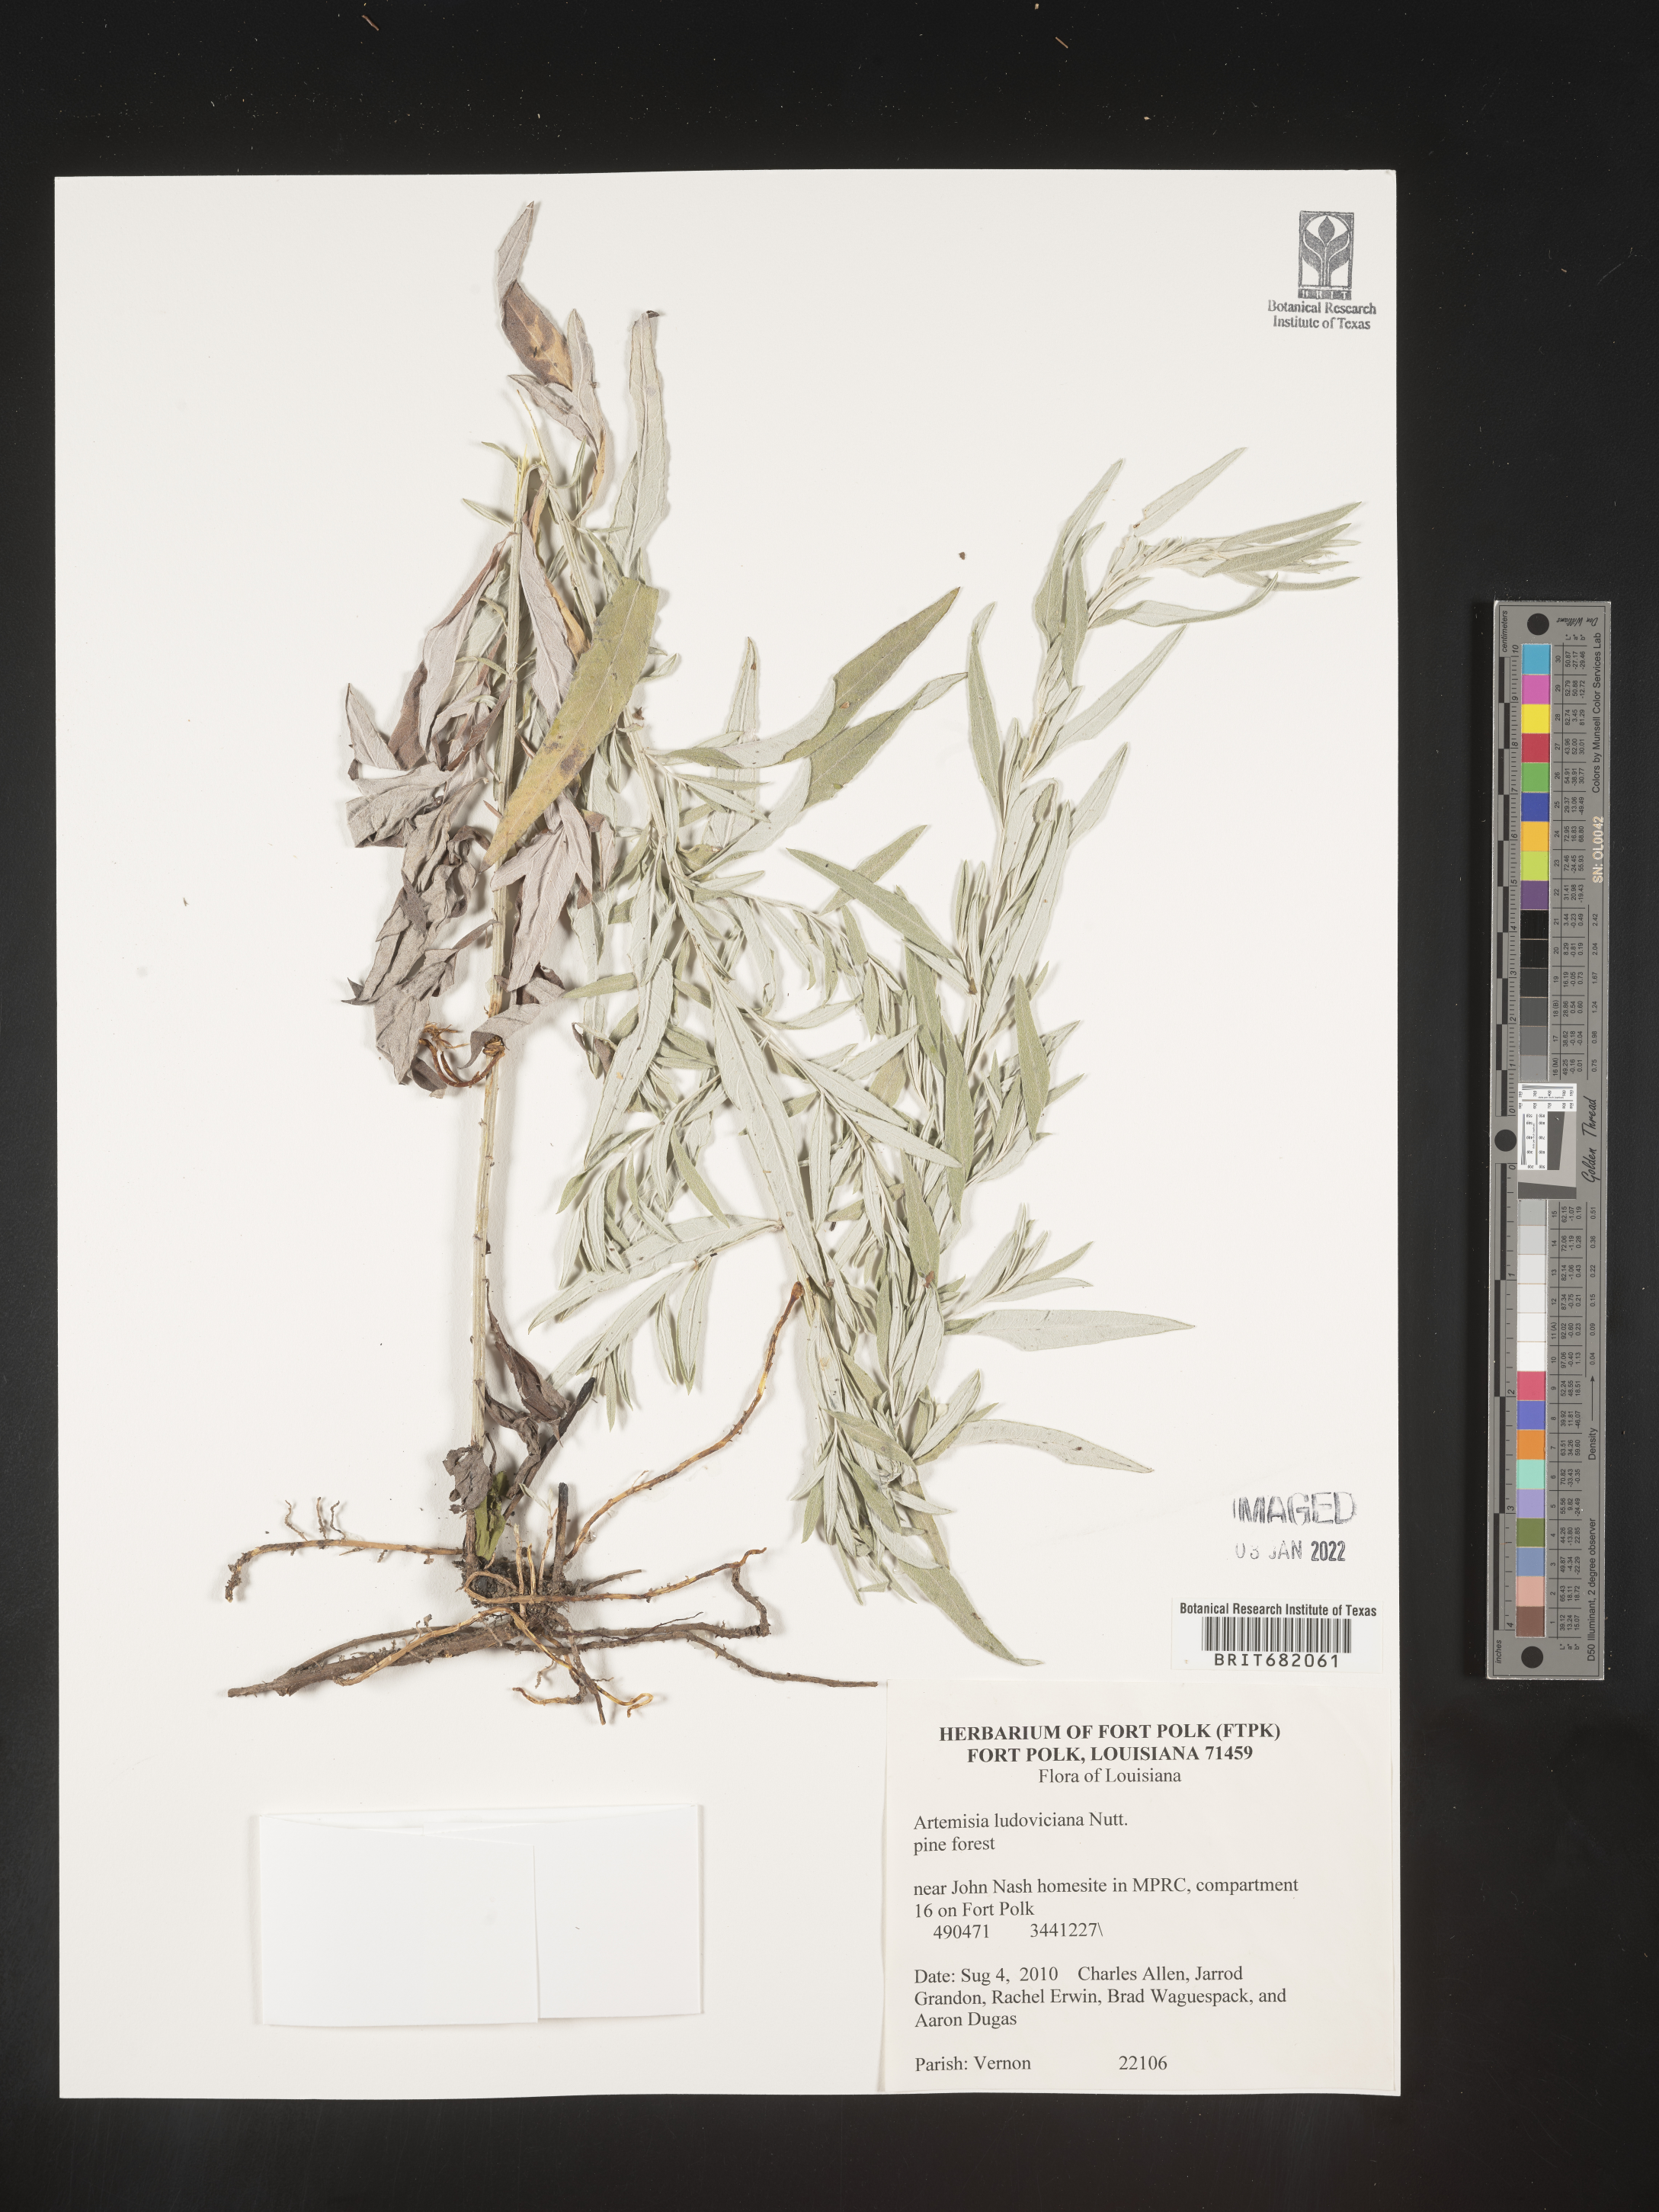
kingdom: Plantae
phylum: Tracheophyta
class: Magnoliopsida
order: Asterales
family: Asteraceae
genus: Artemisia
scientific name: Artemisia ludoviciana
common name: Western mugwort
